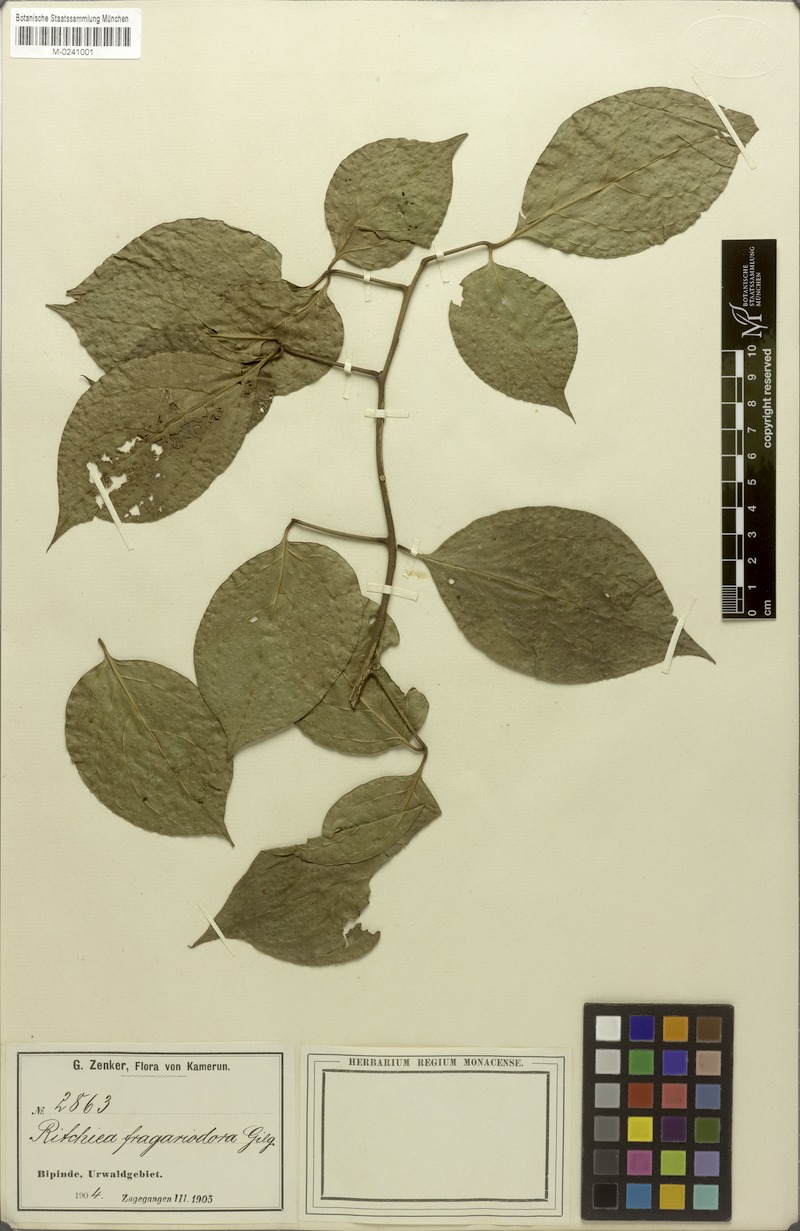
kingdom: Plantae
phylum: Tracheophyta
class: Magnoliopsida
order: Brassicales
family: Capparaceae
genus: Ritchiea
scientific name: Ritchiea capparoides
